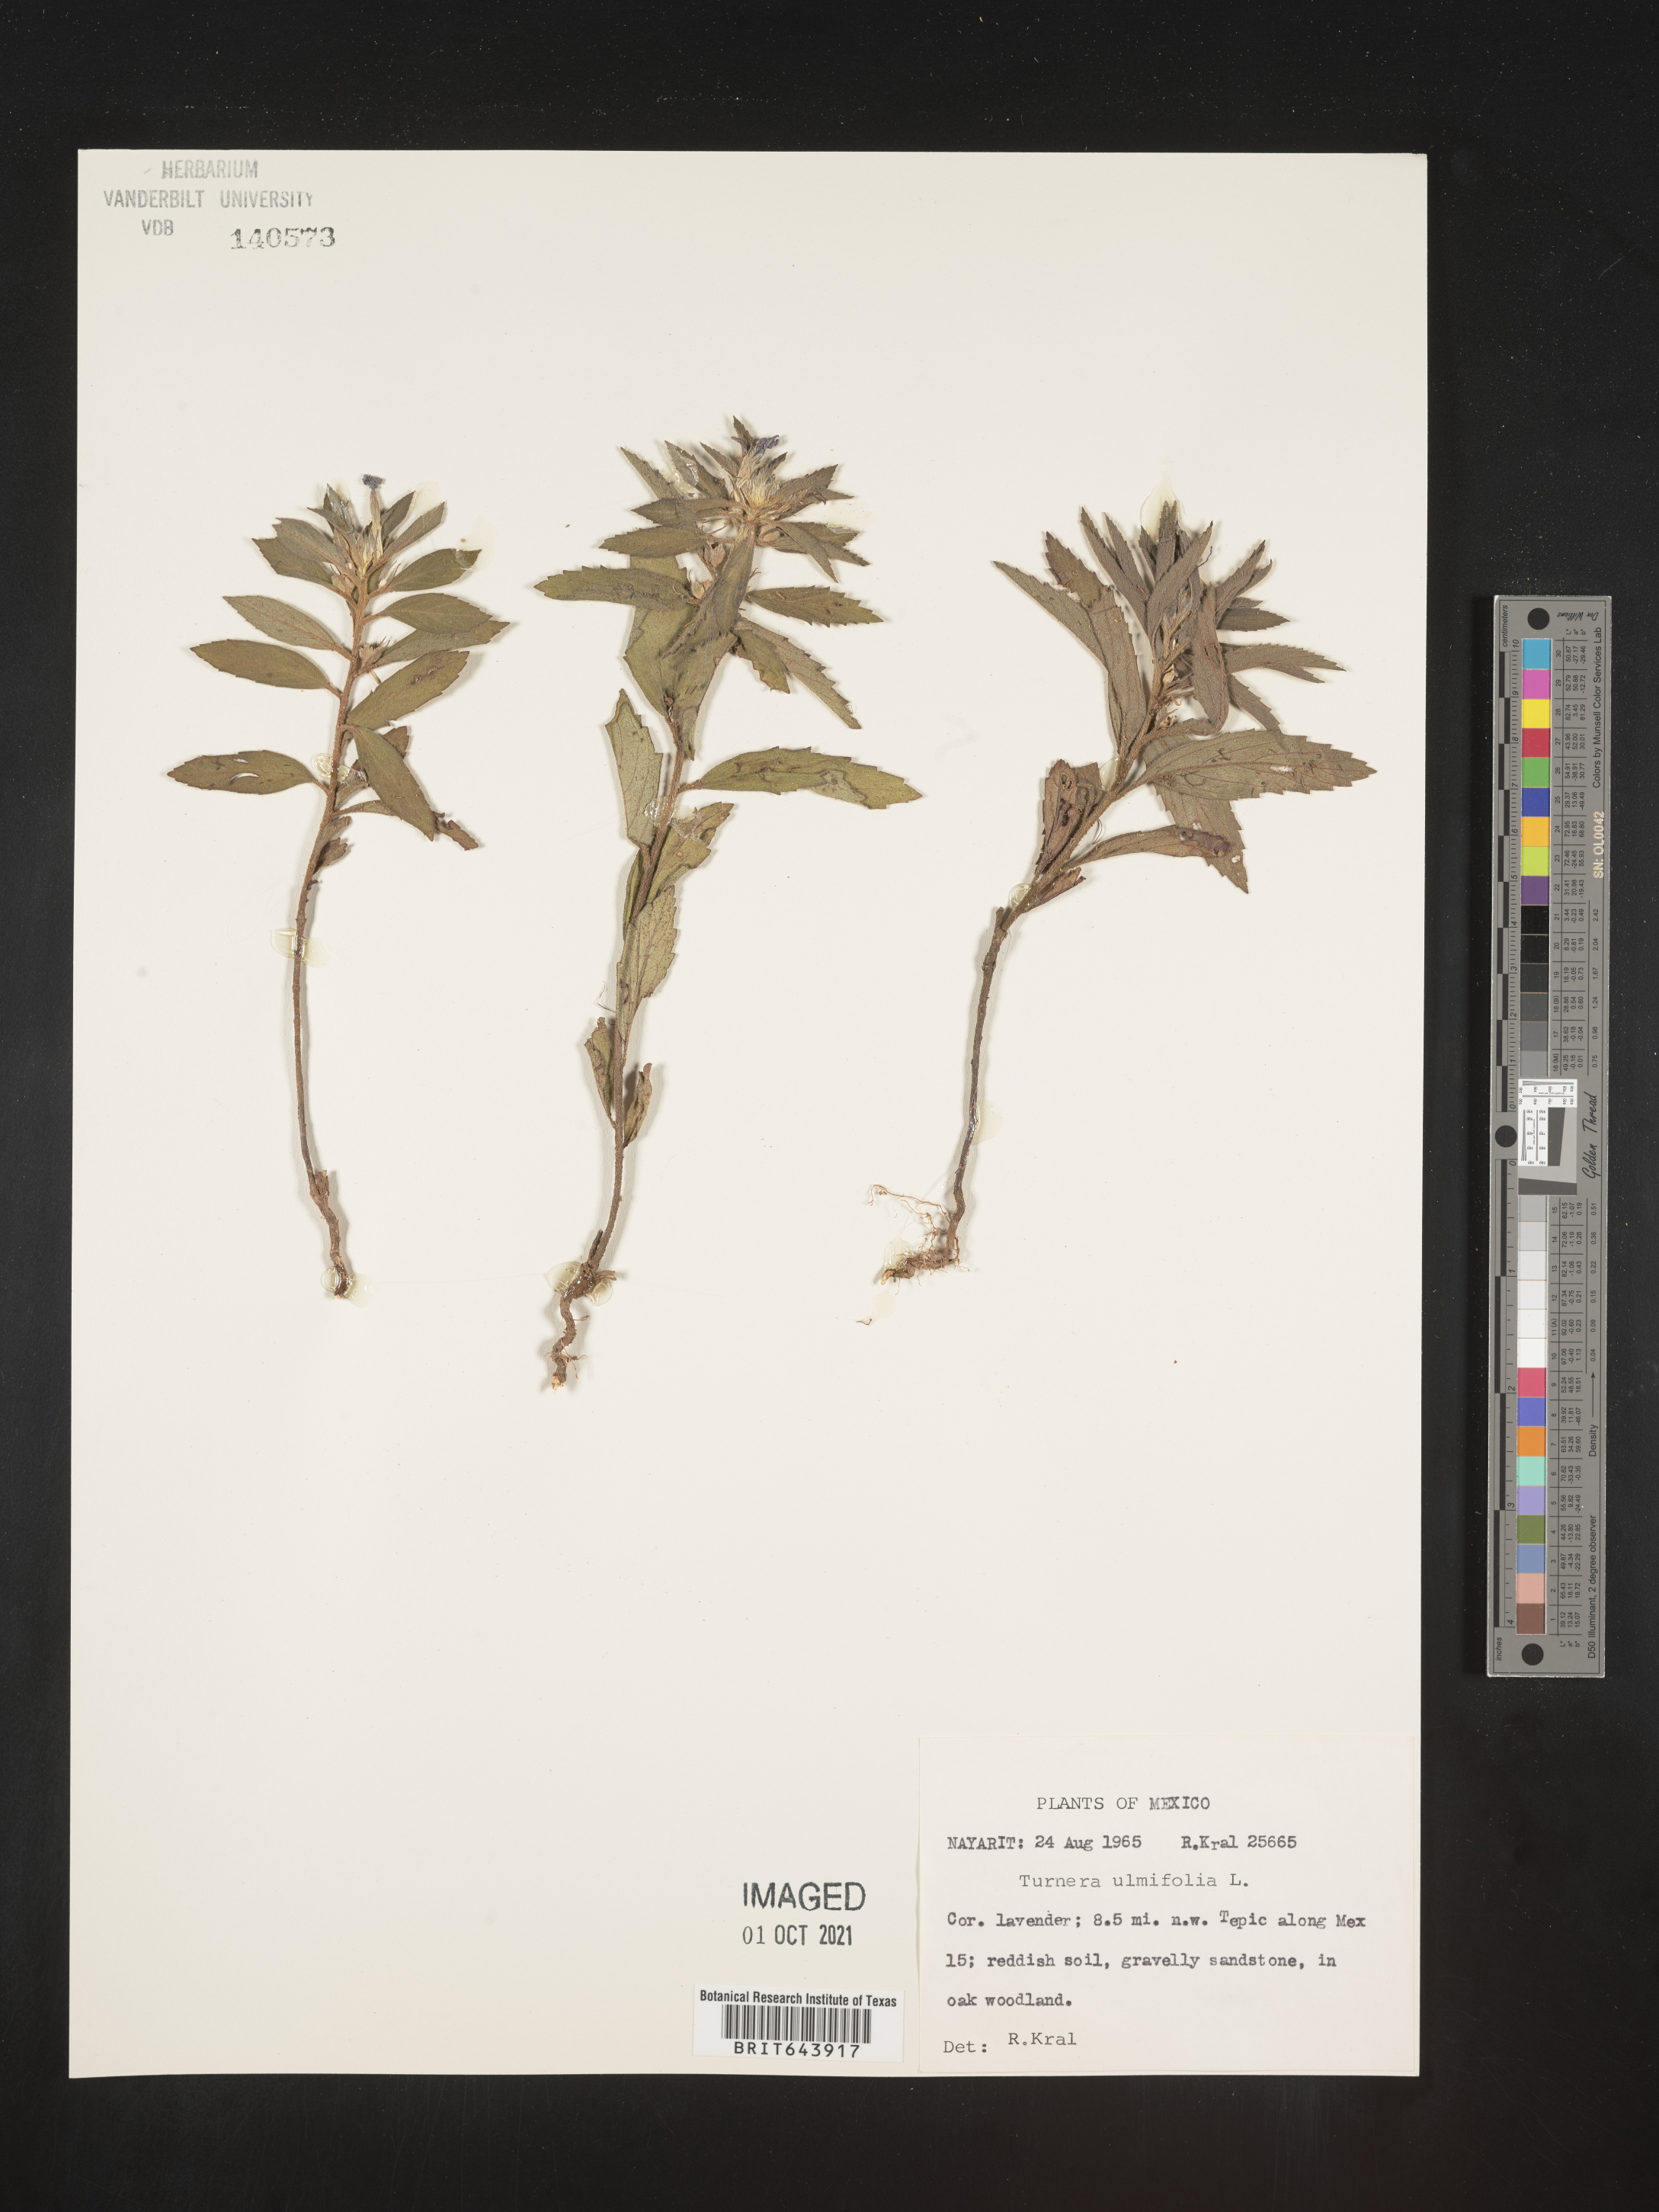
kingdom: Plantae
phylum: Tracheophyta
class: Magnoliopsida
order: Malpighiales
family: Turneraceae
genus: Turnera
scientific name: Turnera
